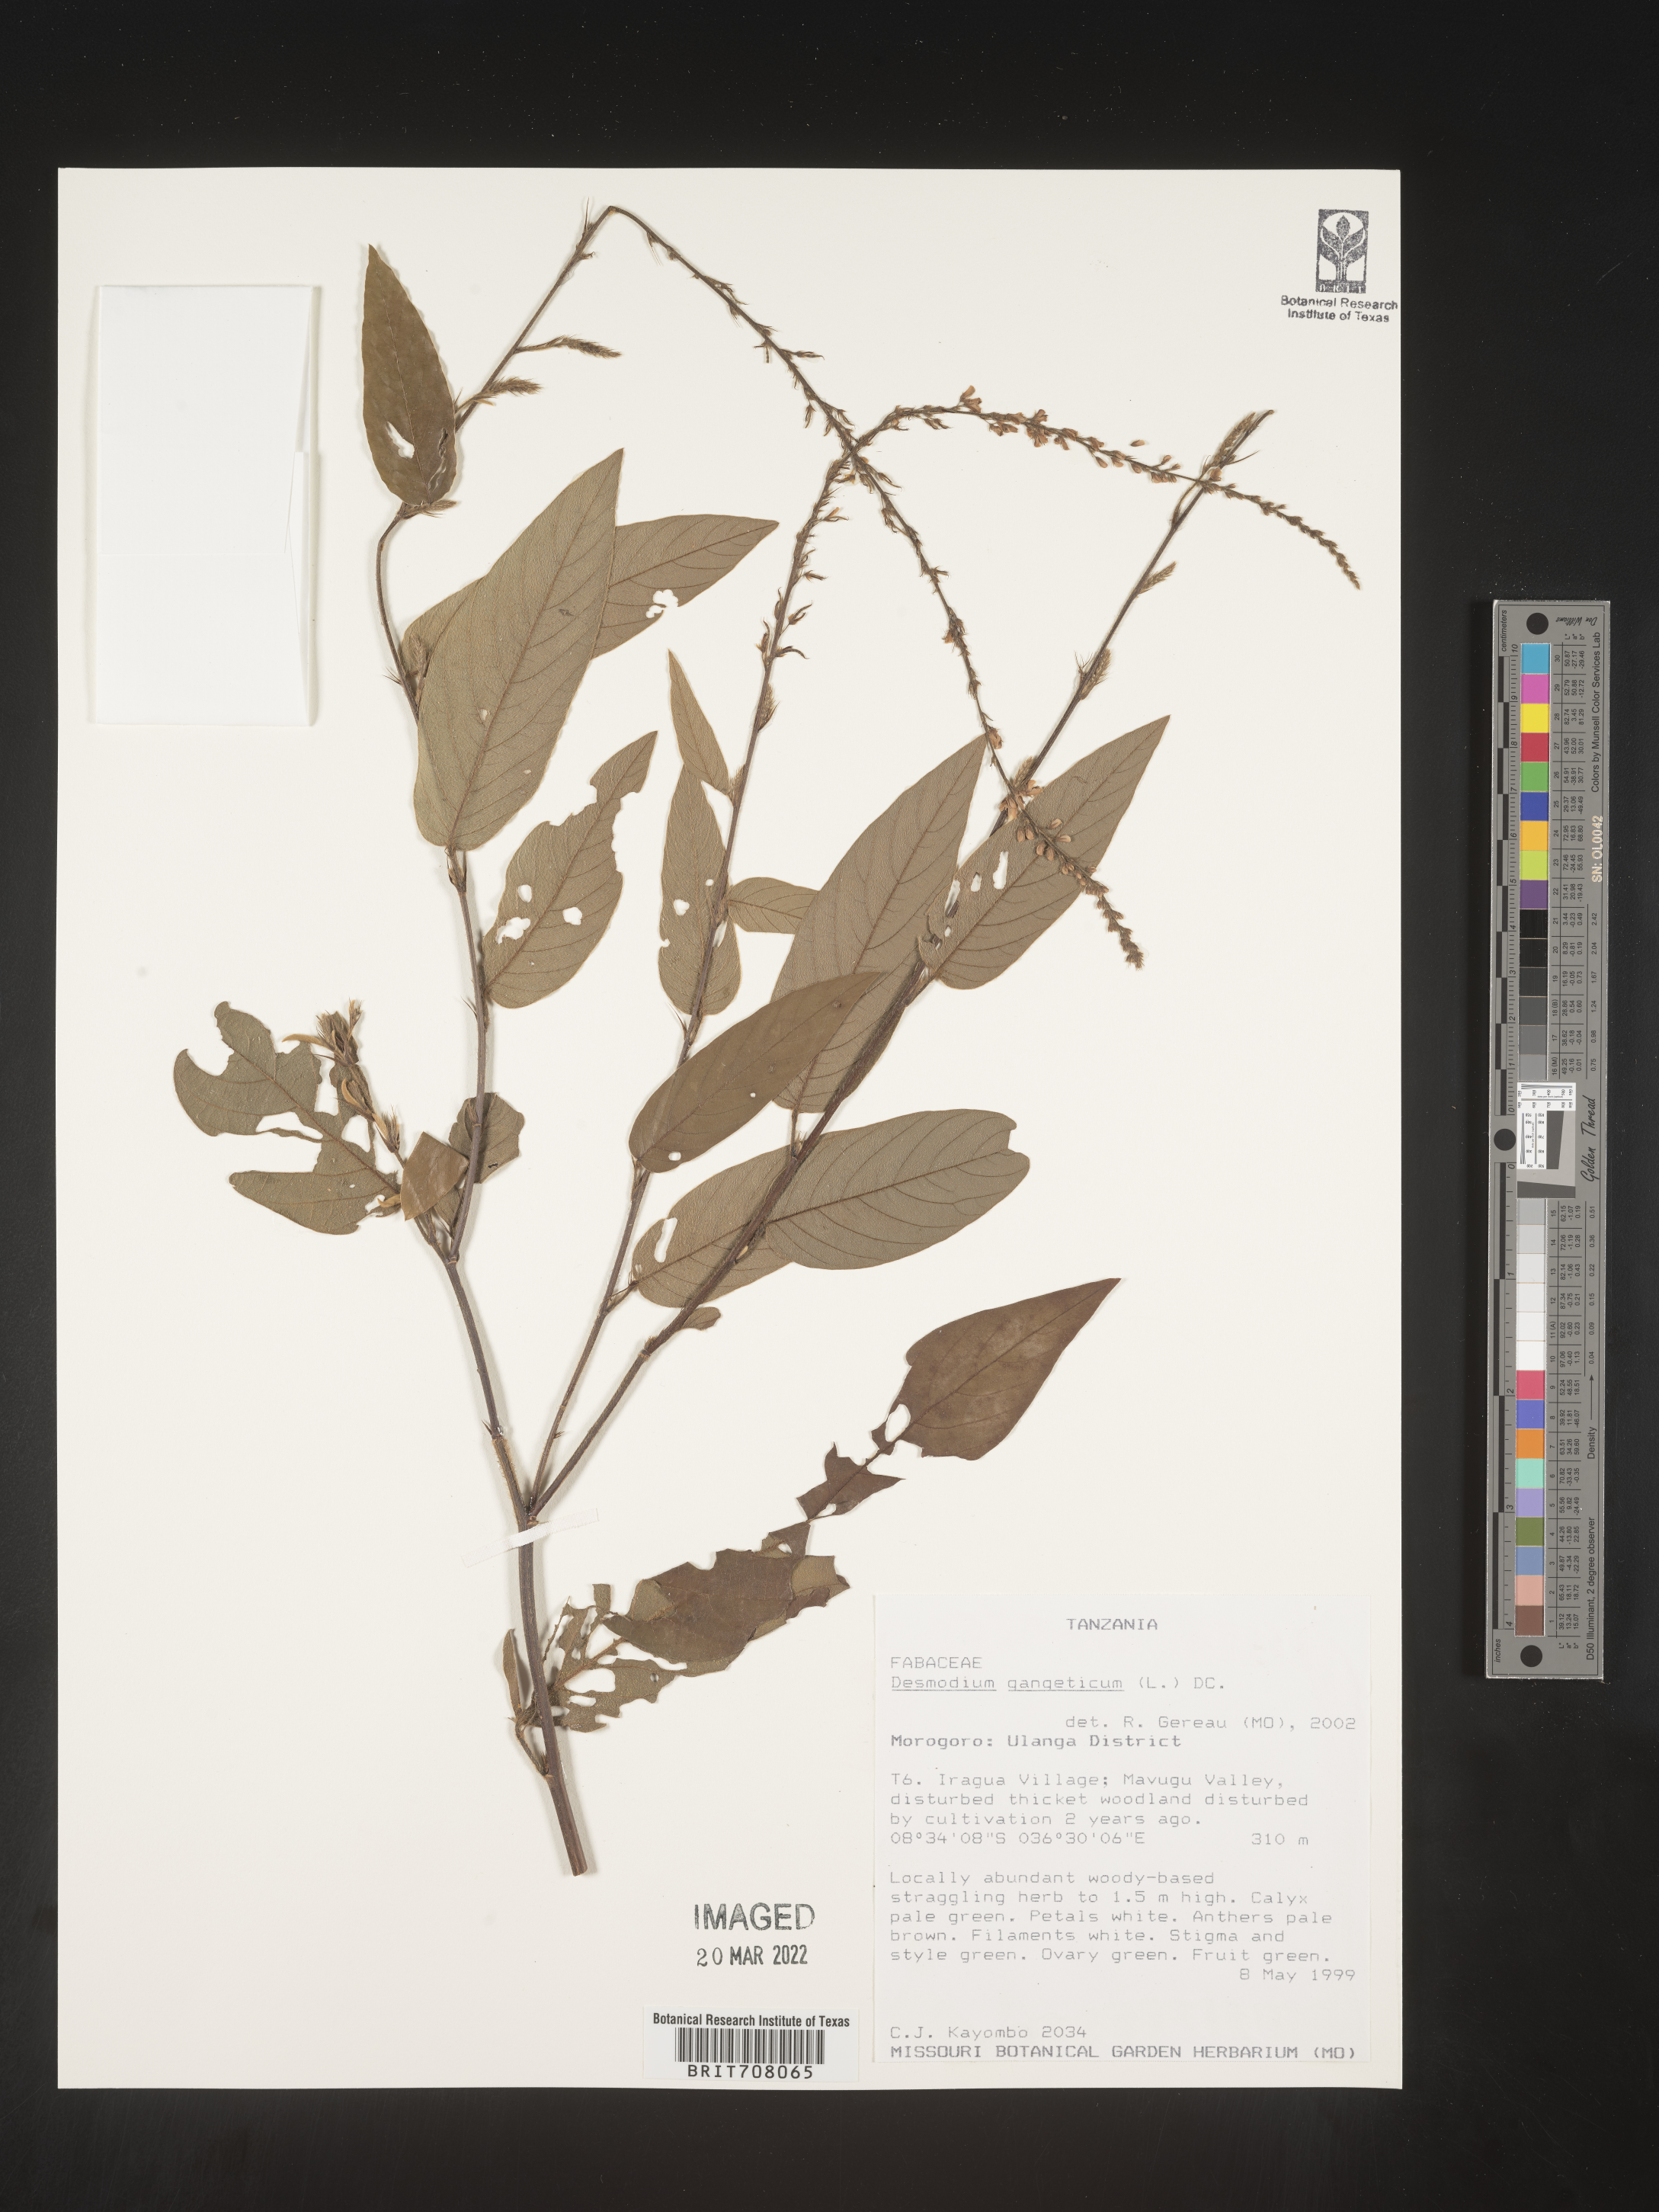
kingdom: Plantae
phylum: Tracheophyta
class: Magnoliopsida
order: Fabales
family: Fabaceae
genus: Desmodium
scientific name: Desmodium
